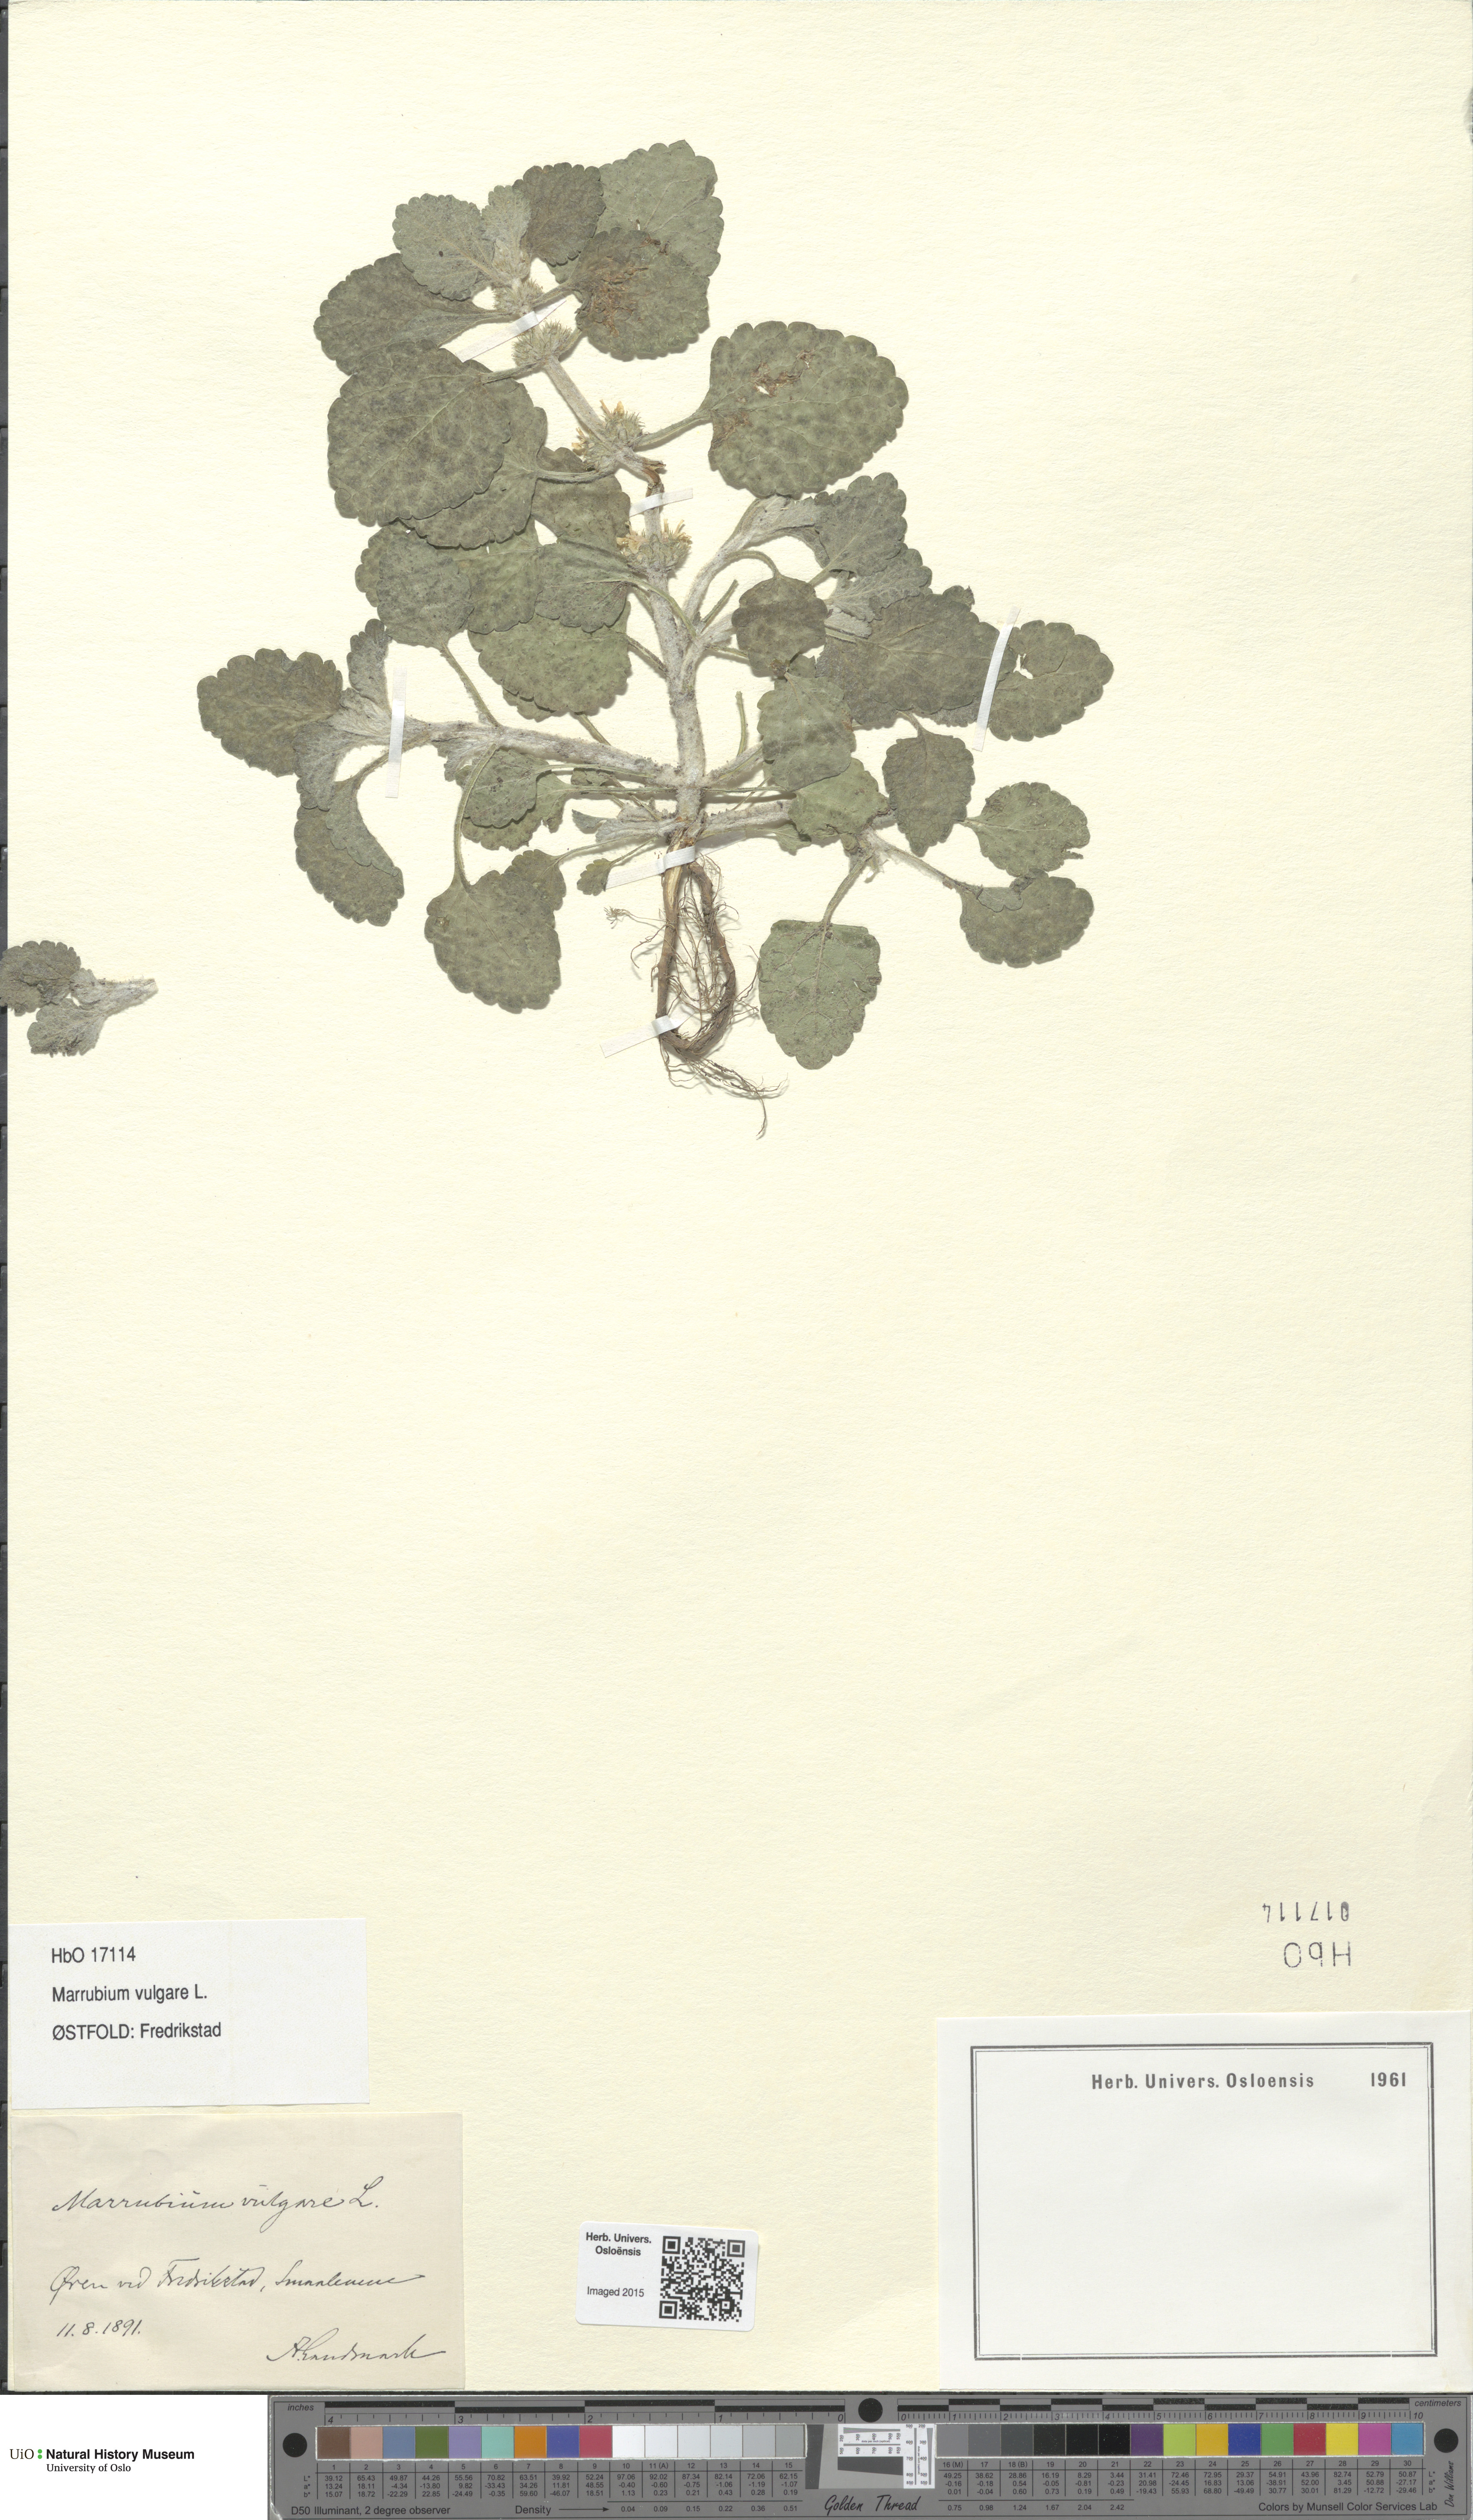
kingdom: Plantae
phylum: Tracheophyta
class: Magnoliopsida
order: Lamiales
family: Lamiaceae
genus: Marrubium
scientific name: Marrubium vulgare
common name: Horehound
